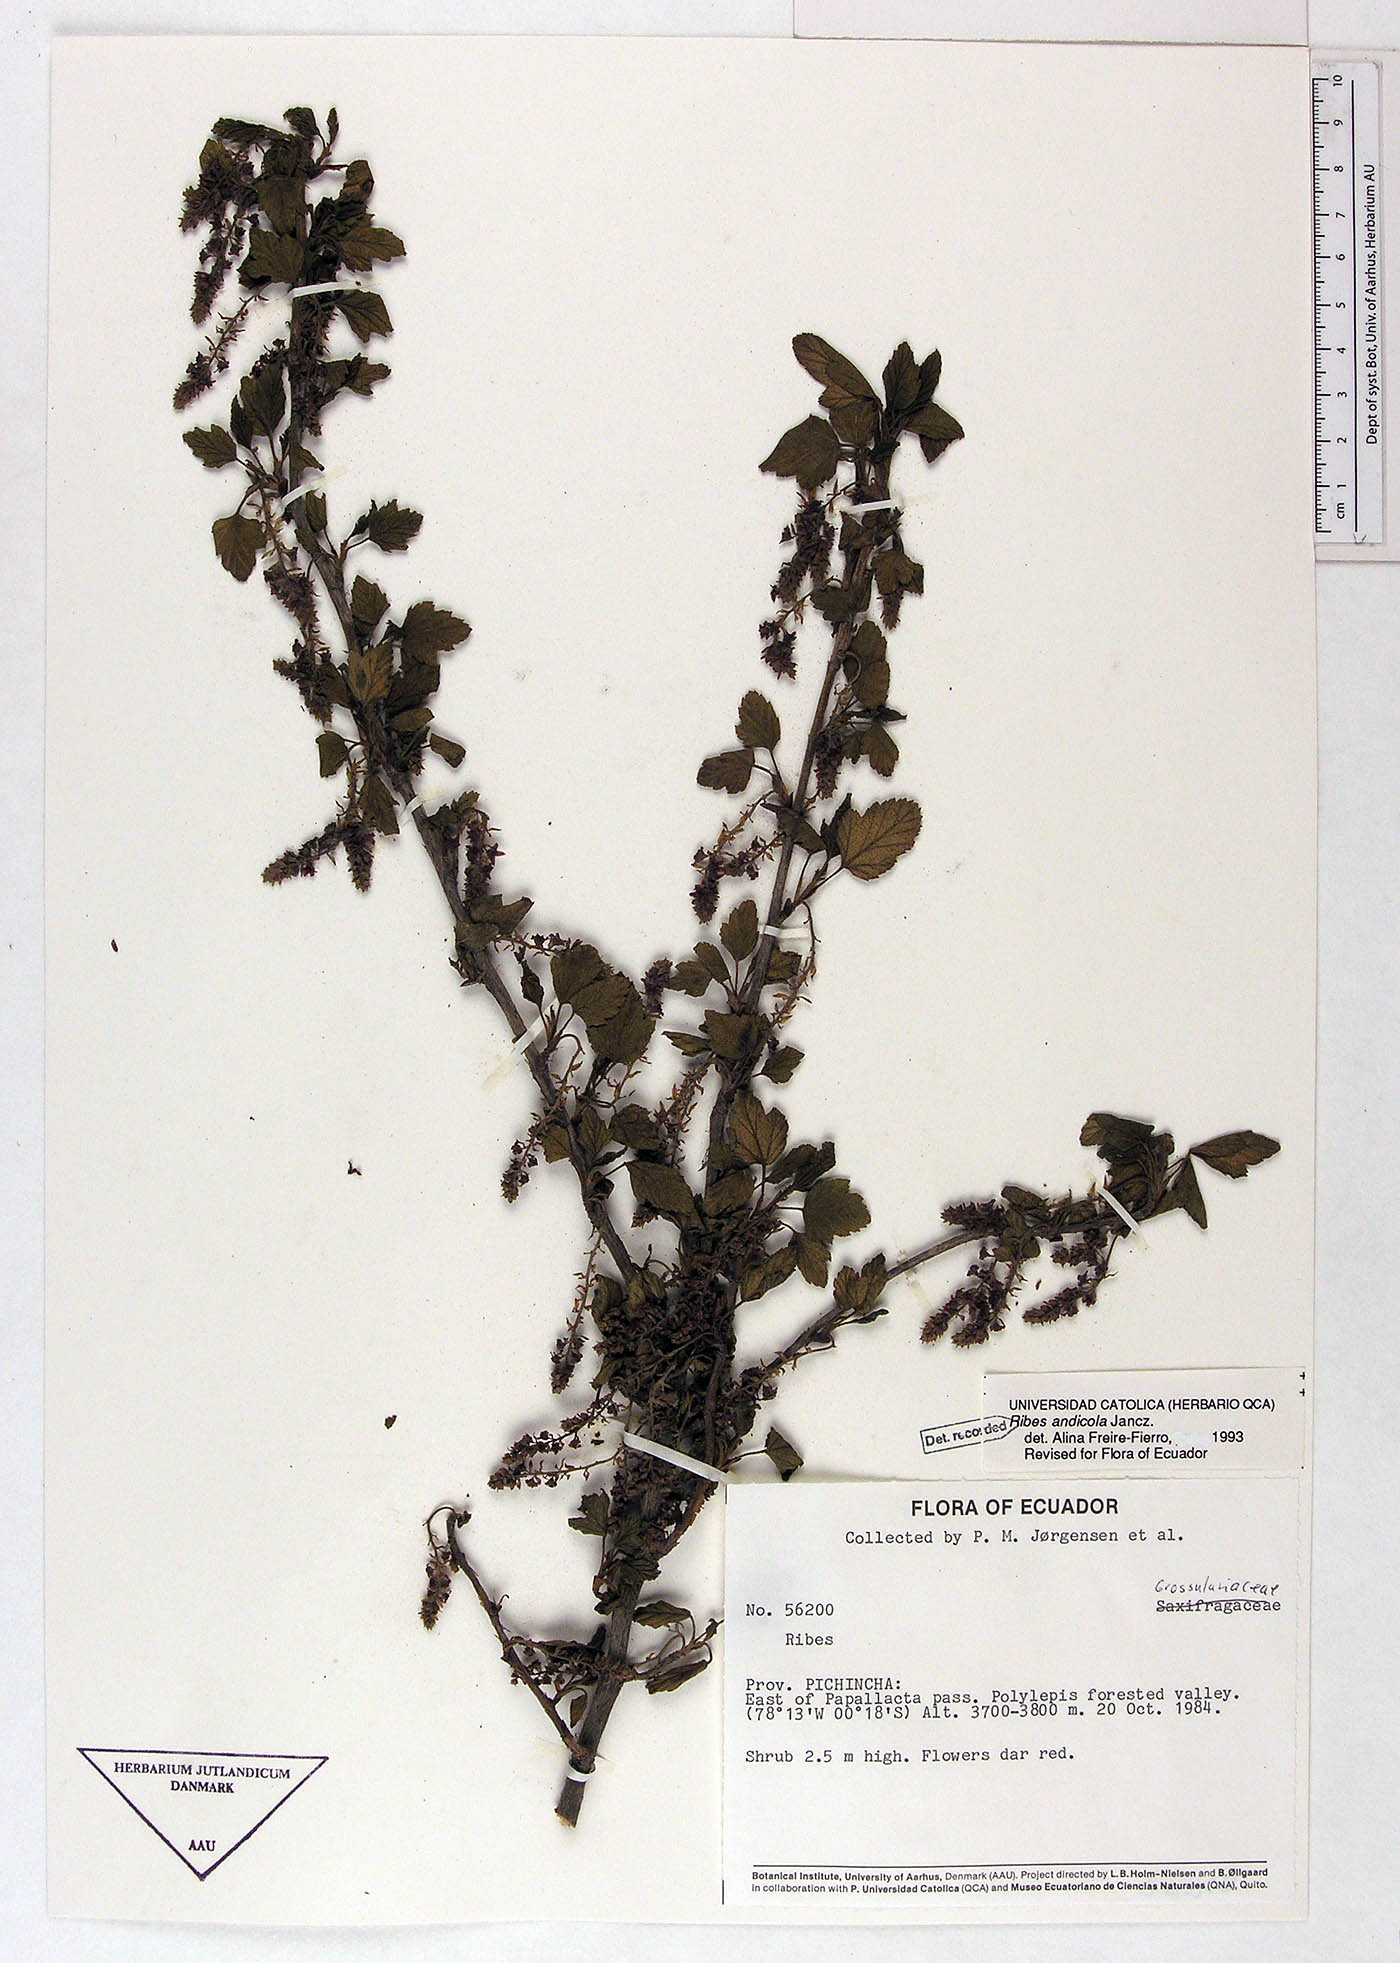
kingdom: Plantae
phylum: Tracheophyta
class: Magnoliopsida
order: Saxifragales
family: Grossulariaceae
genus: Ribes
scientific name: Ribes andicola
